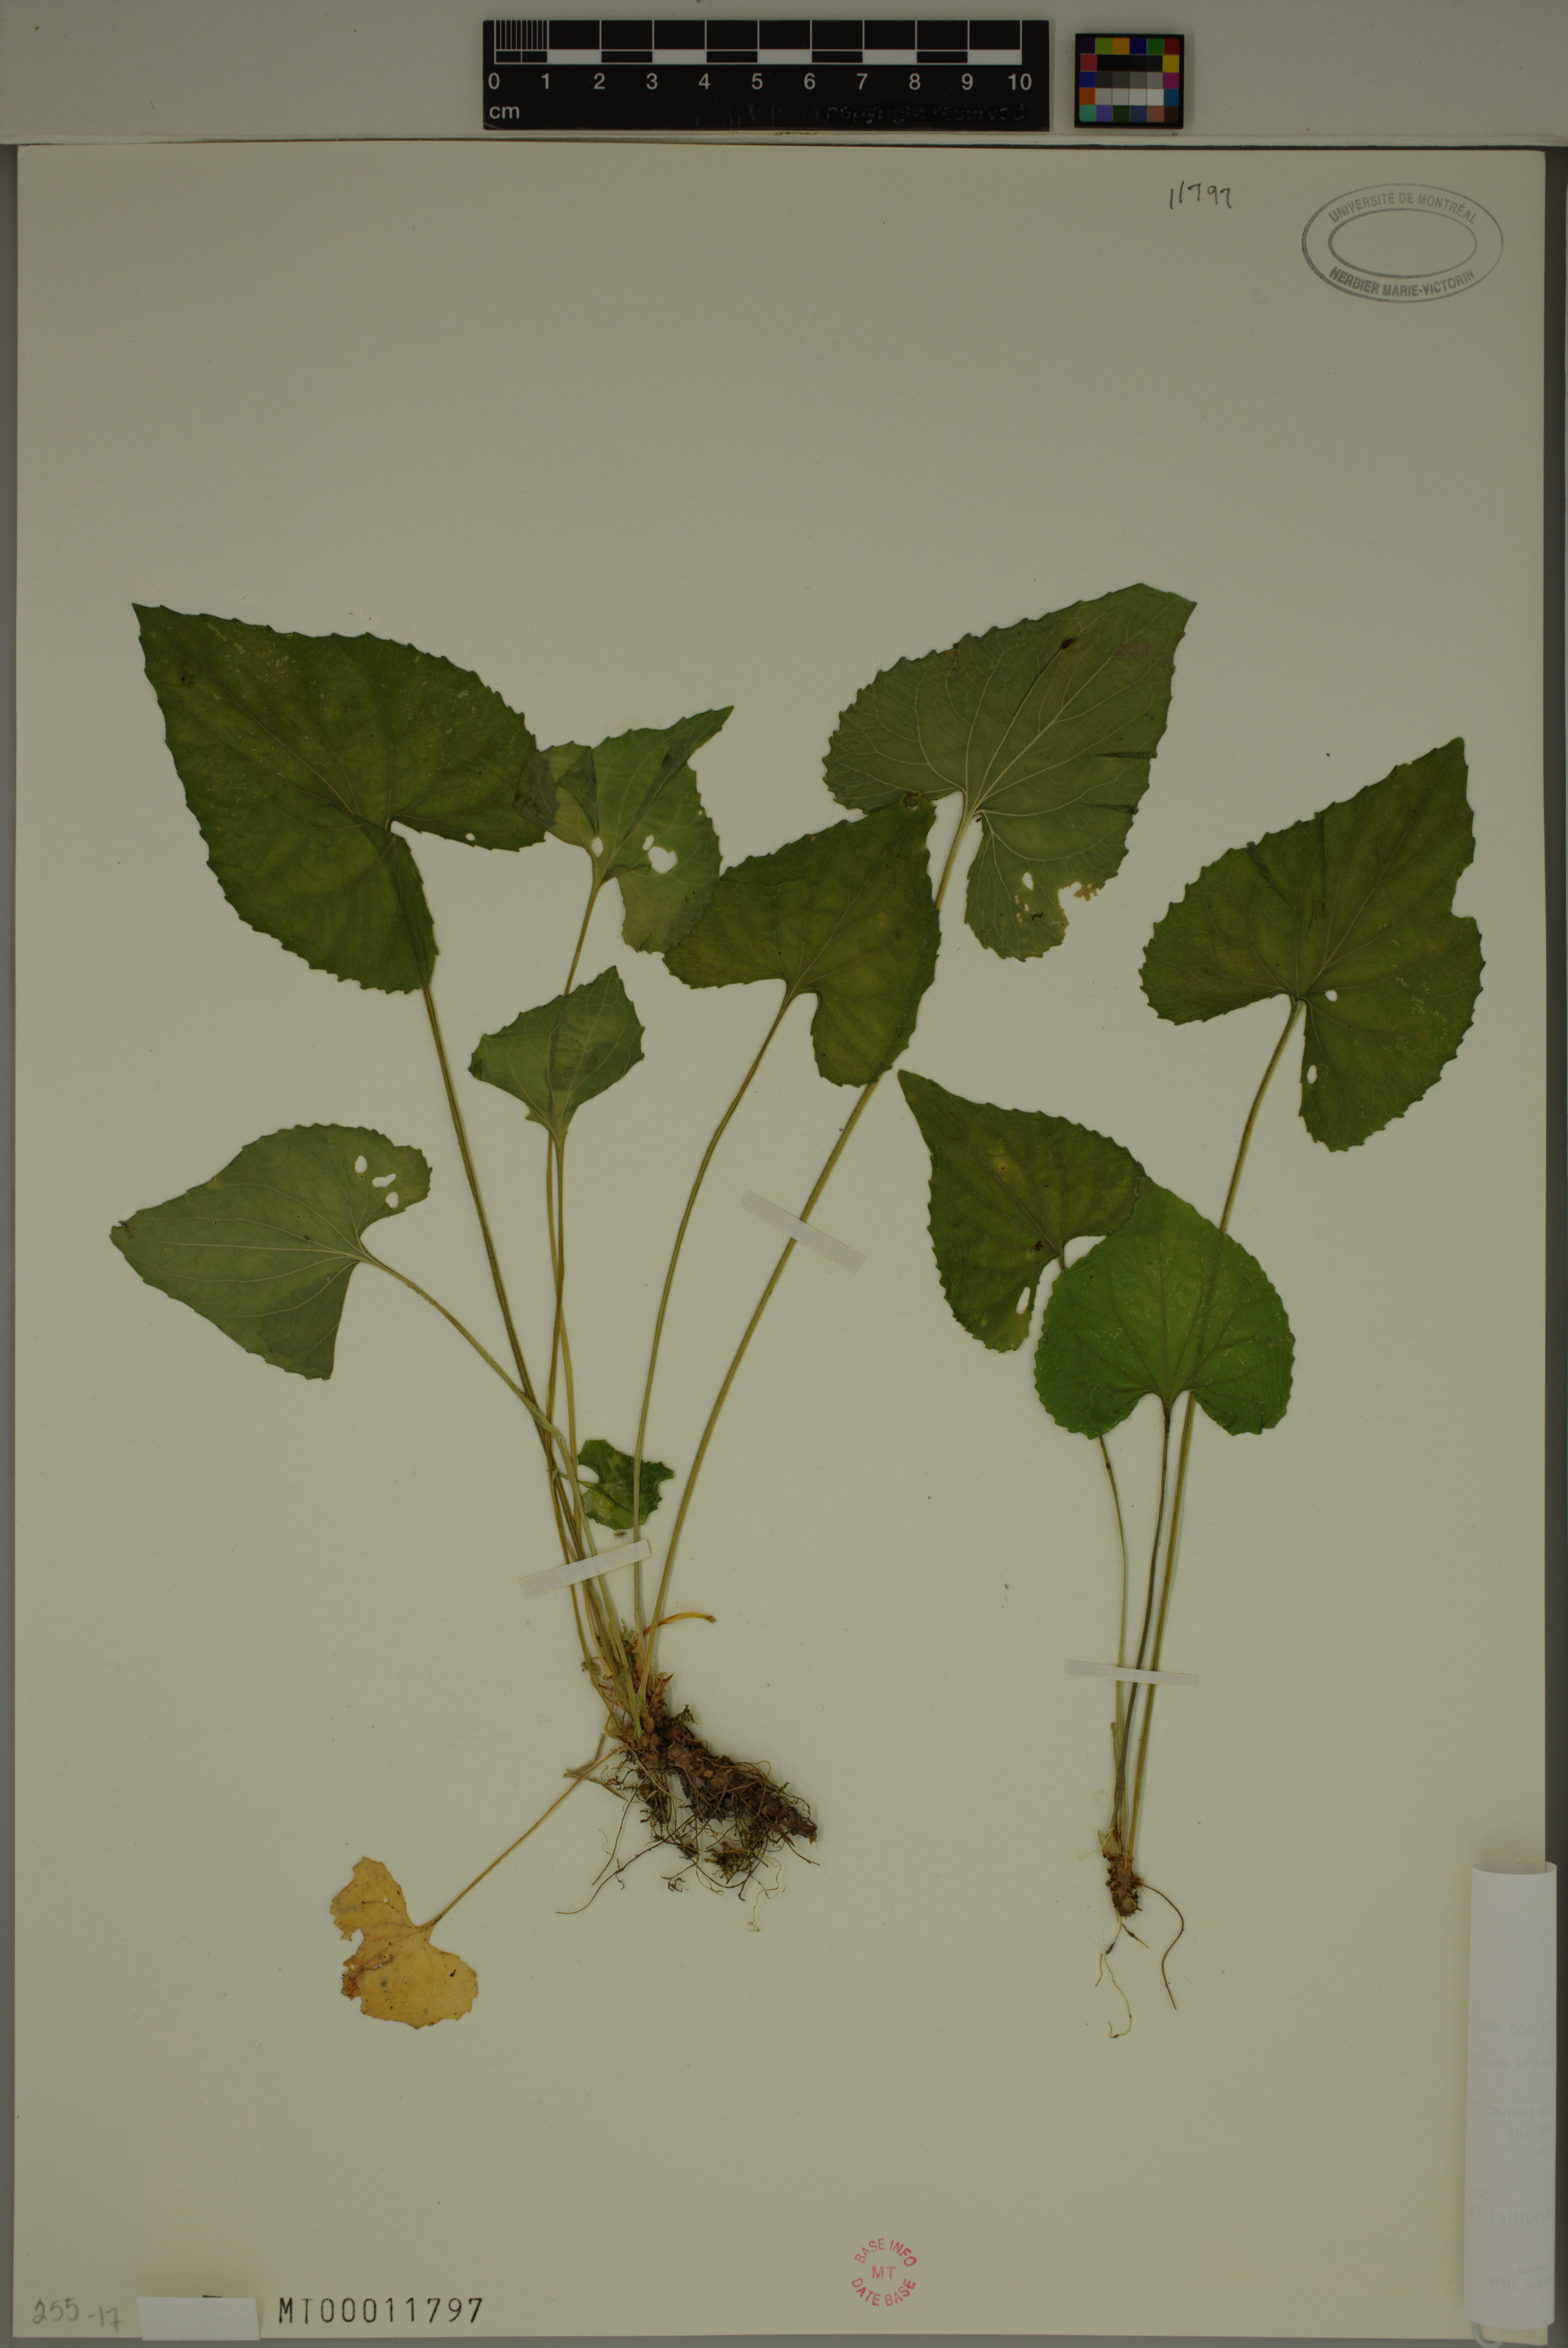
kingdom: Plantae
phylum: Tracheophyta
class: Magnoliopsida
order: Malpighiales
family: Violaceae
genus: Viola
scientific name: Viola sororia
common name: Dooryard violet
